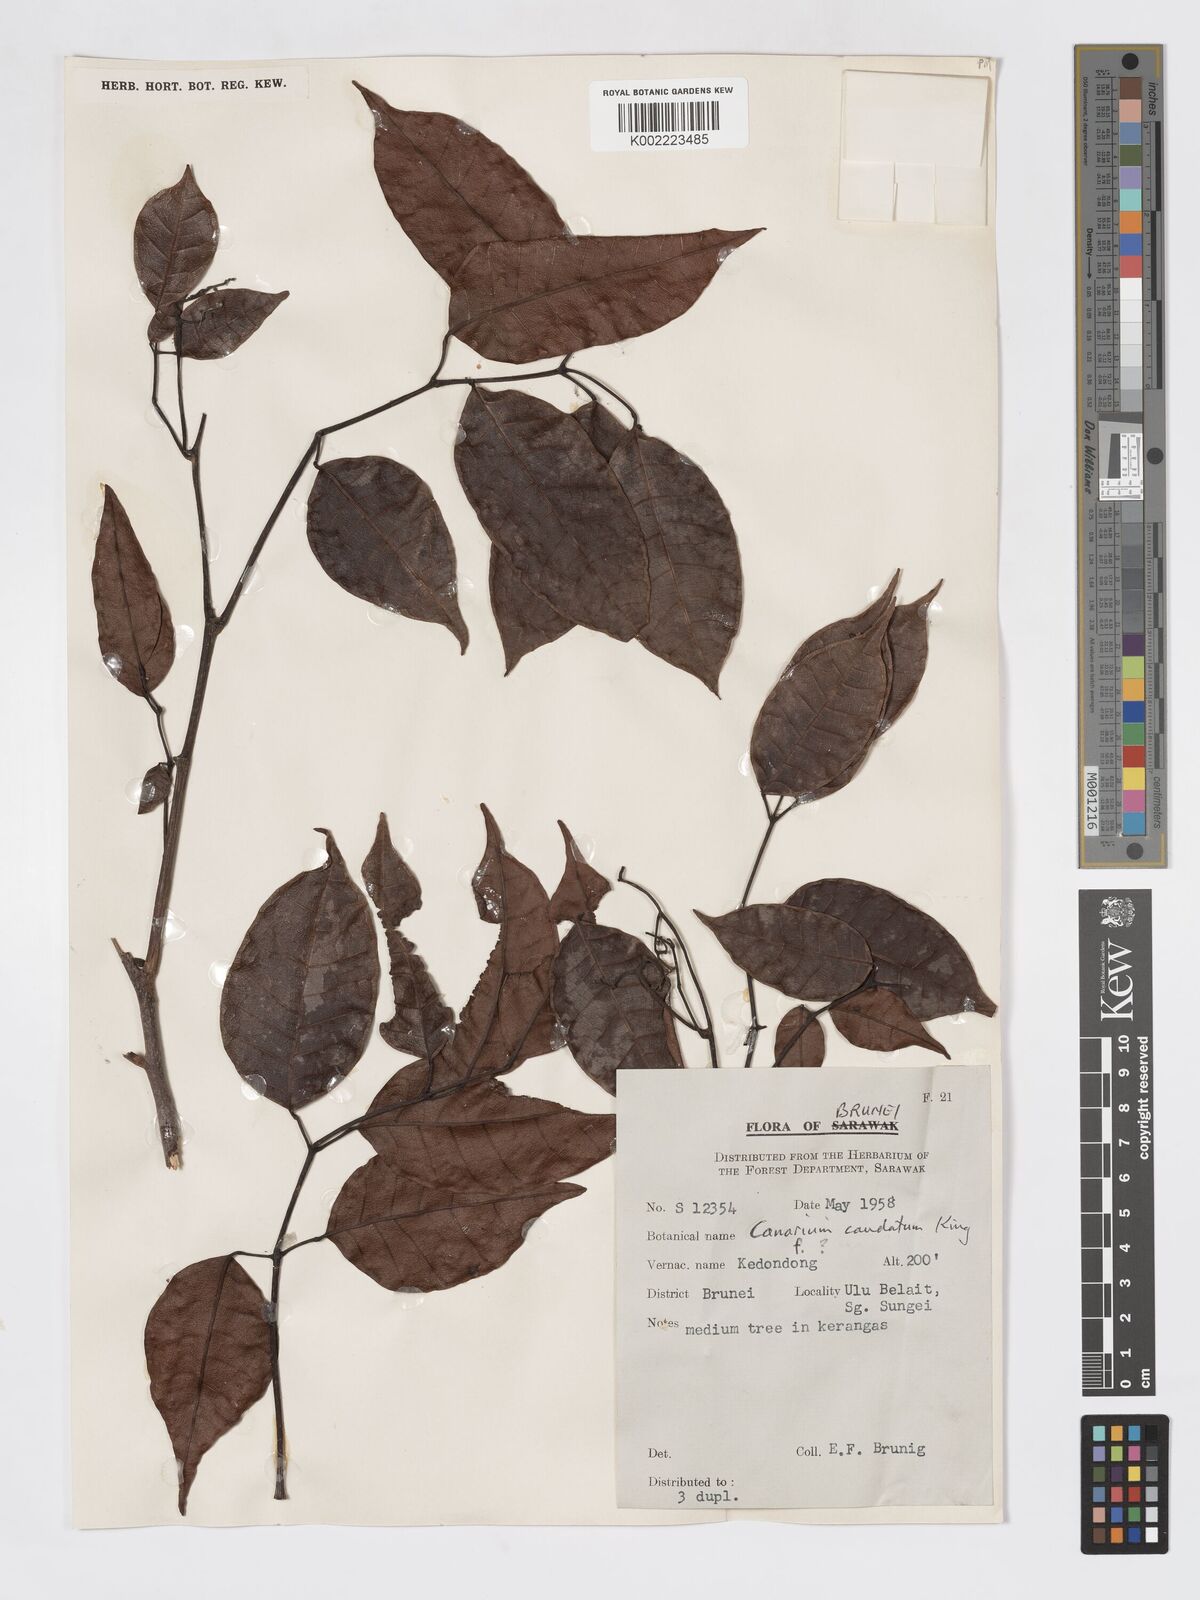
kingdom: Plantae
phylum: Tracheophyta
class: Magnoliopsida
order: Sapindales
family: Burseraceae
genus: Canarium
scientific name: Canarium caudatum
